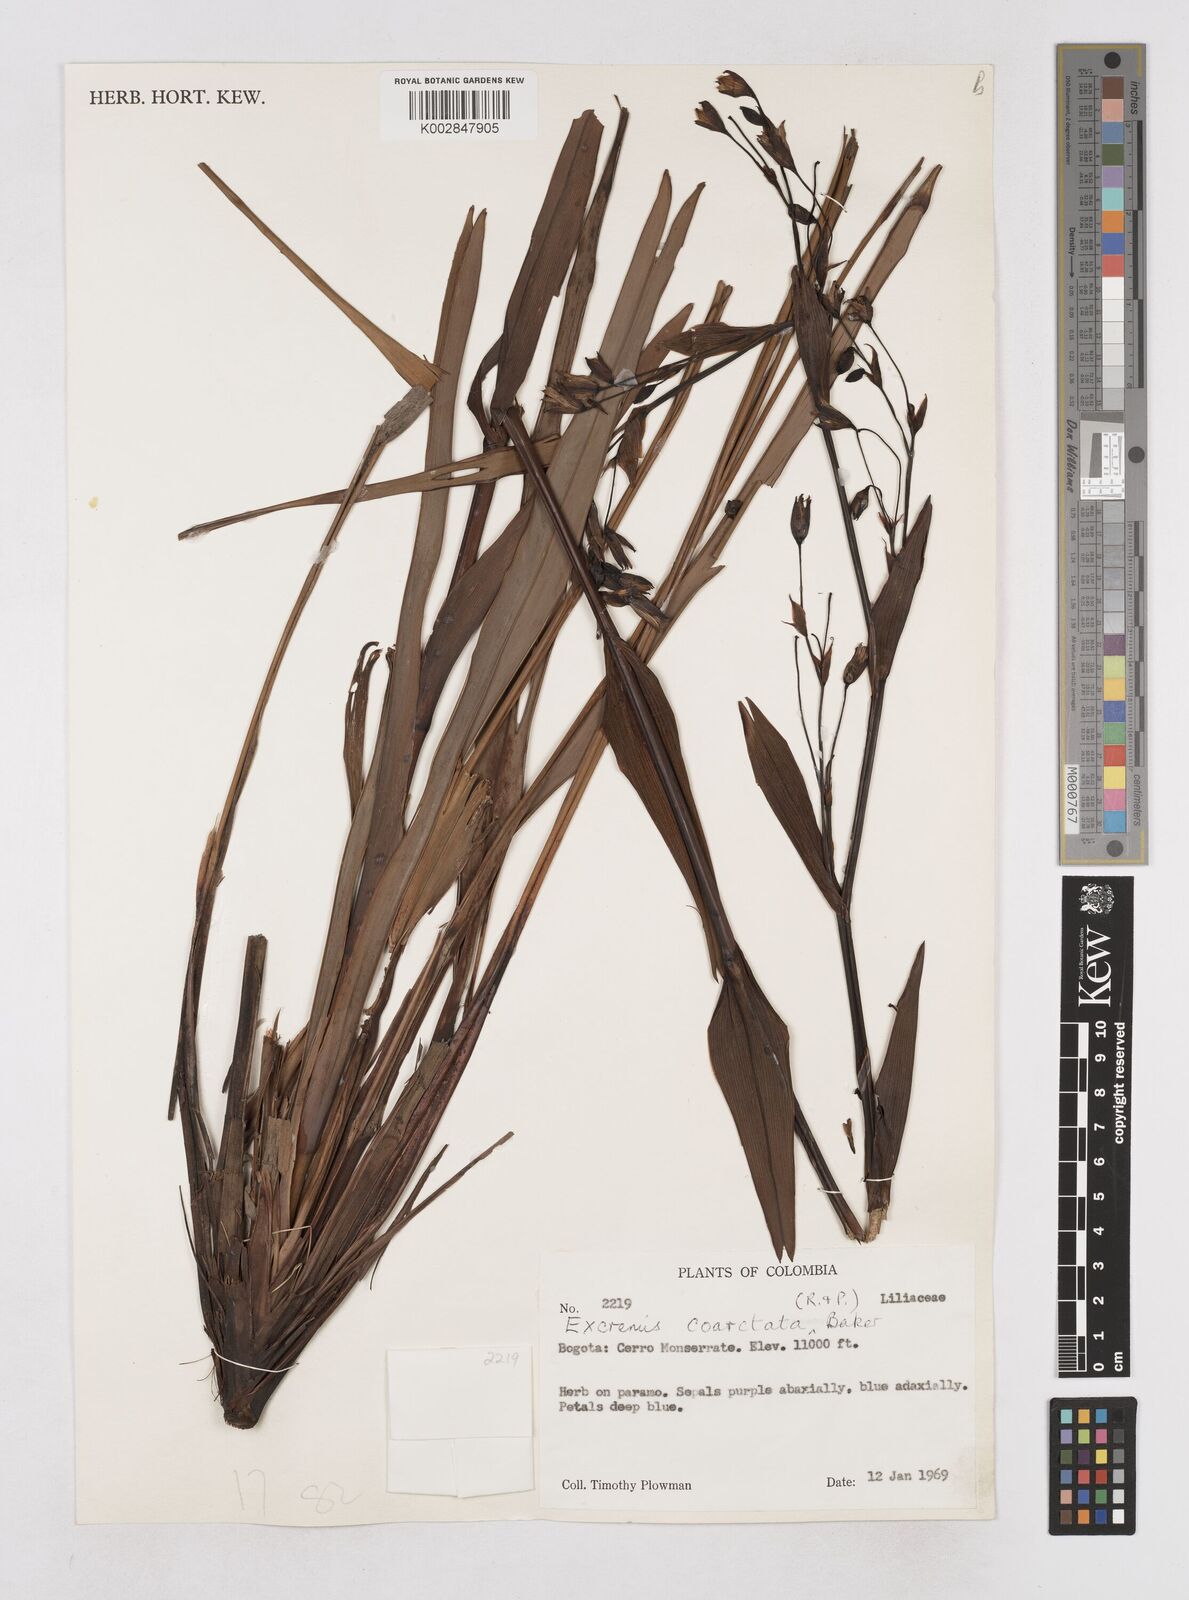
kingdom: Plantae
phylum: Tracheophyta
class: Liliopsida
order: Asparagales
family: Asphodelaceae
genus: Excremis
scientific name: Excremis coarctata
